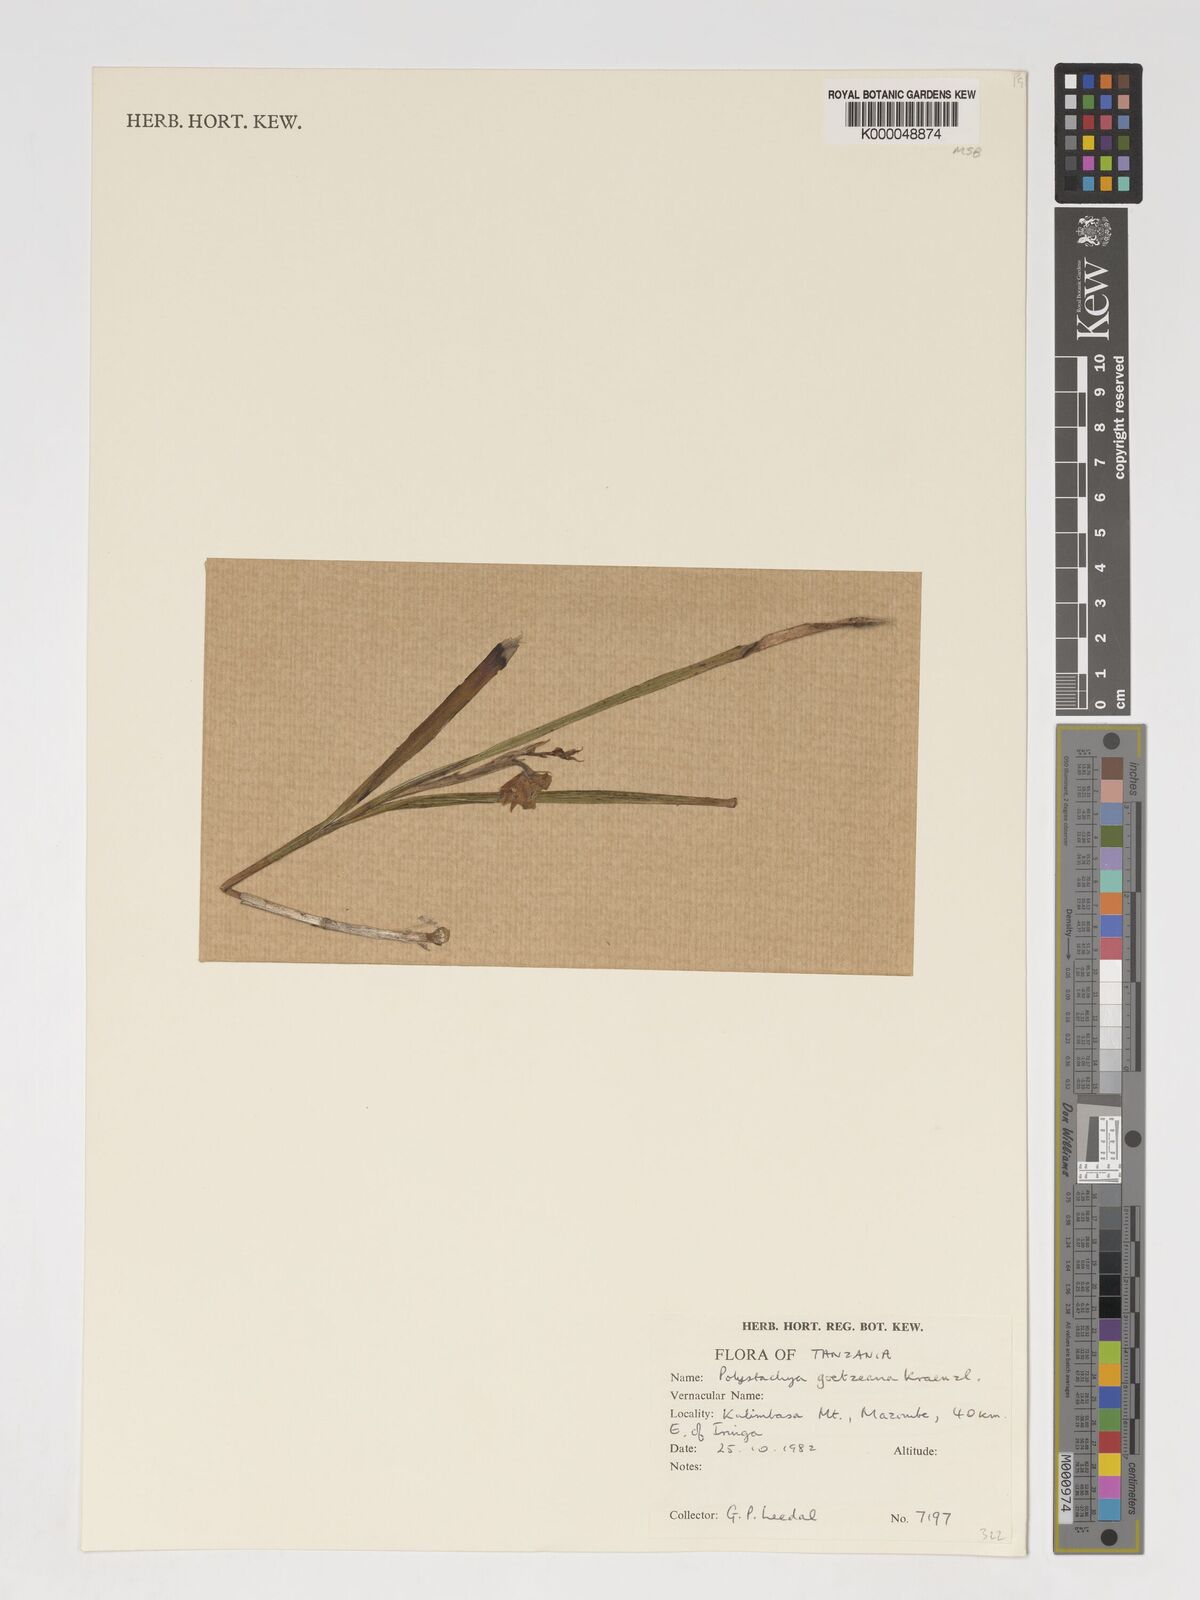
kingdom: Plantae
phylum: Tracheophyta
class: Liliopsida
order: Asparagales
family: Orchidaceae
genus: Polystachya
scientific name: Polystachya goetzeana
